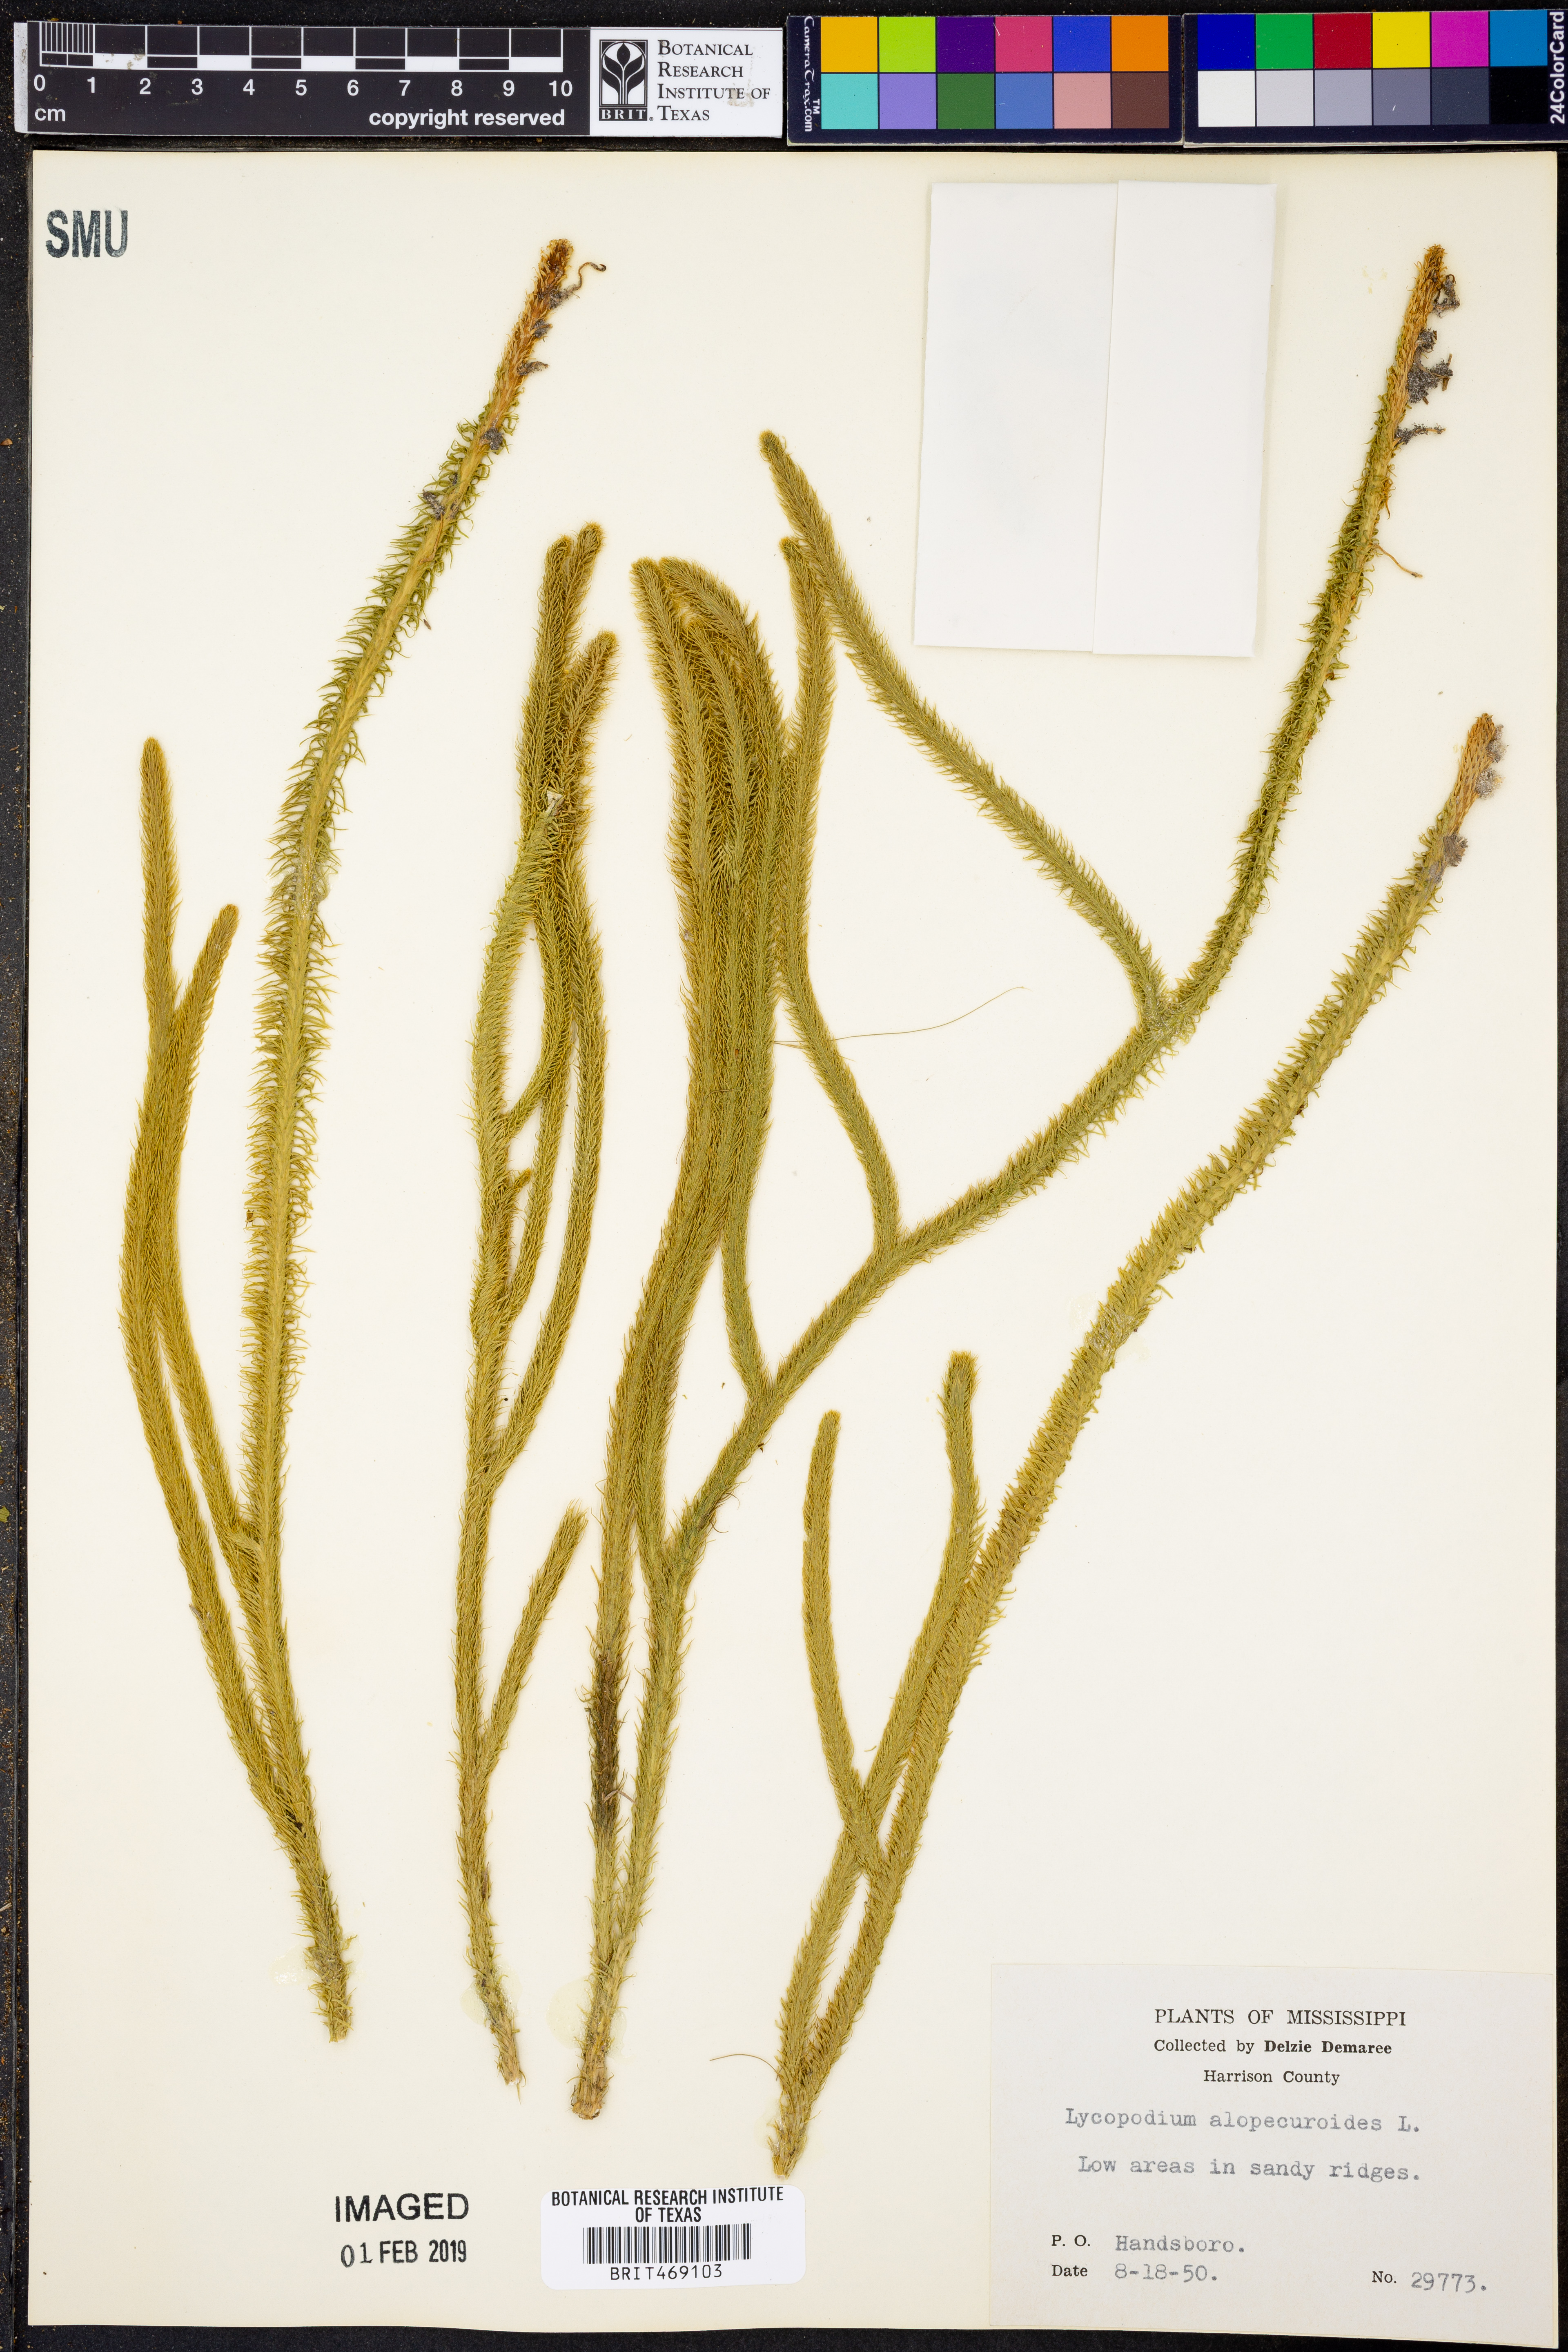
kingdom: Plantae
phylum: Tracheophyta
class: Lycopodiopsida
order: Lycopodiales
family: Lycopodiaceae
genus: Lycopodiella
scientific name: Lycopodiella alopecuroides
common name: Foxtail clubmoss
